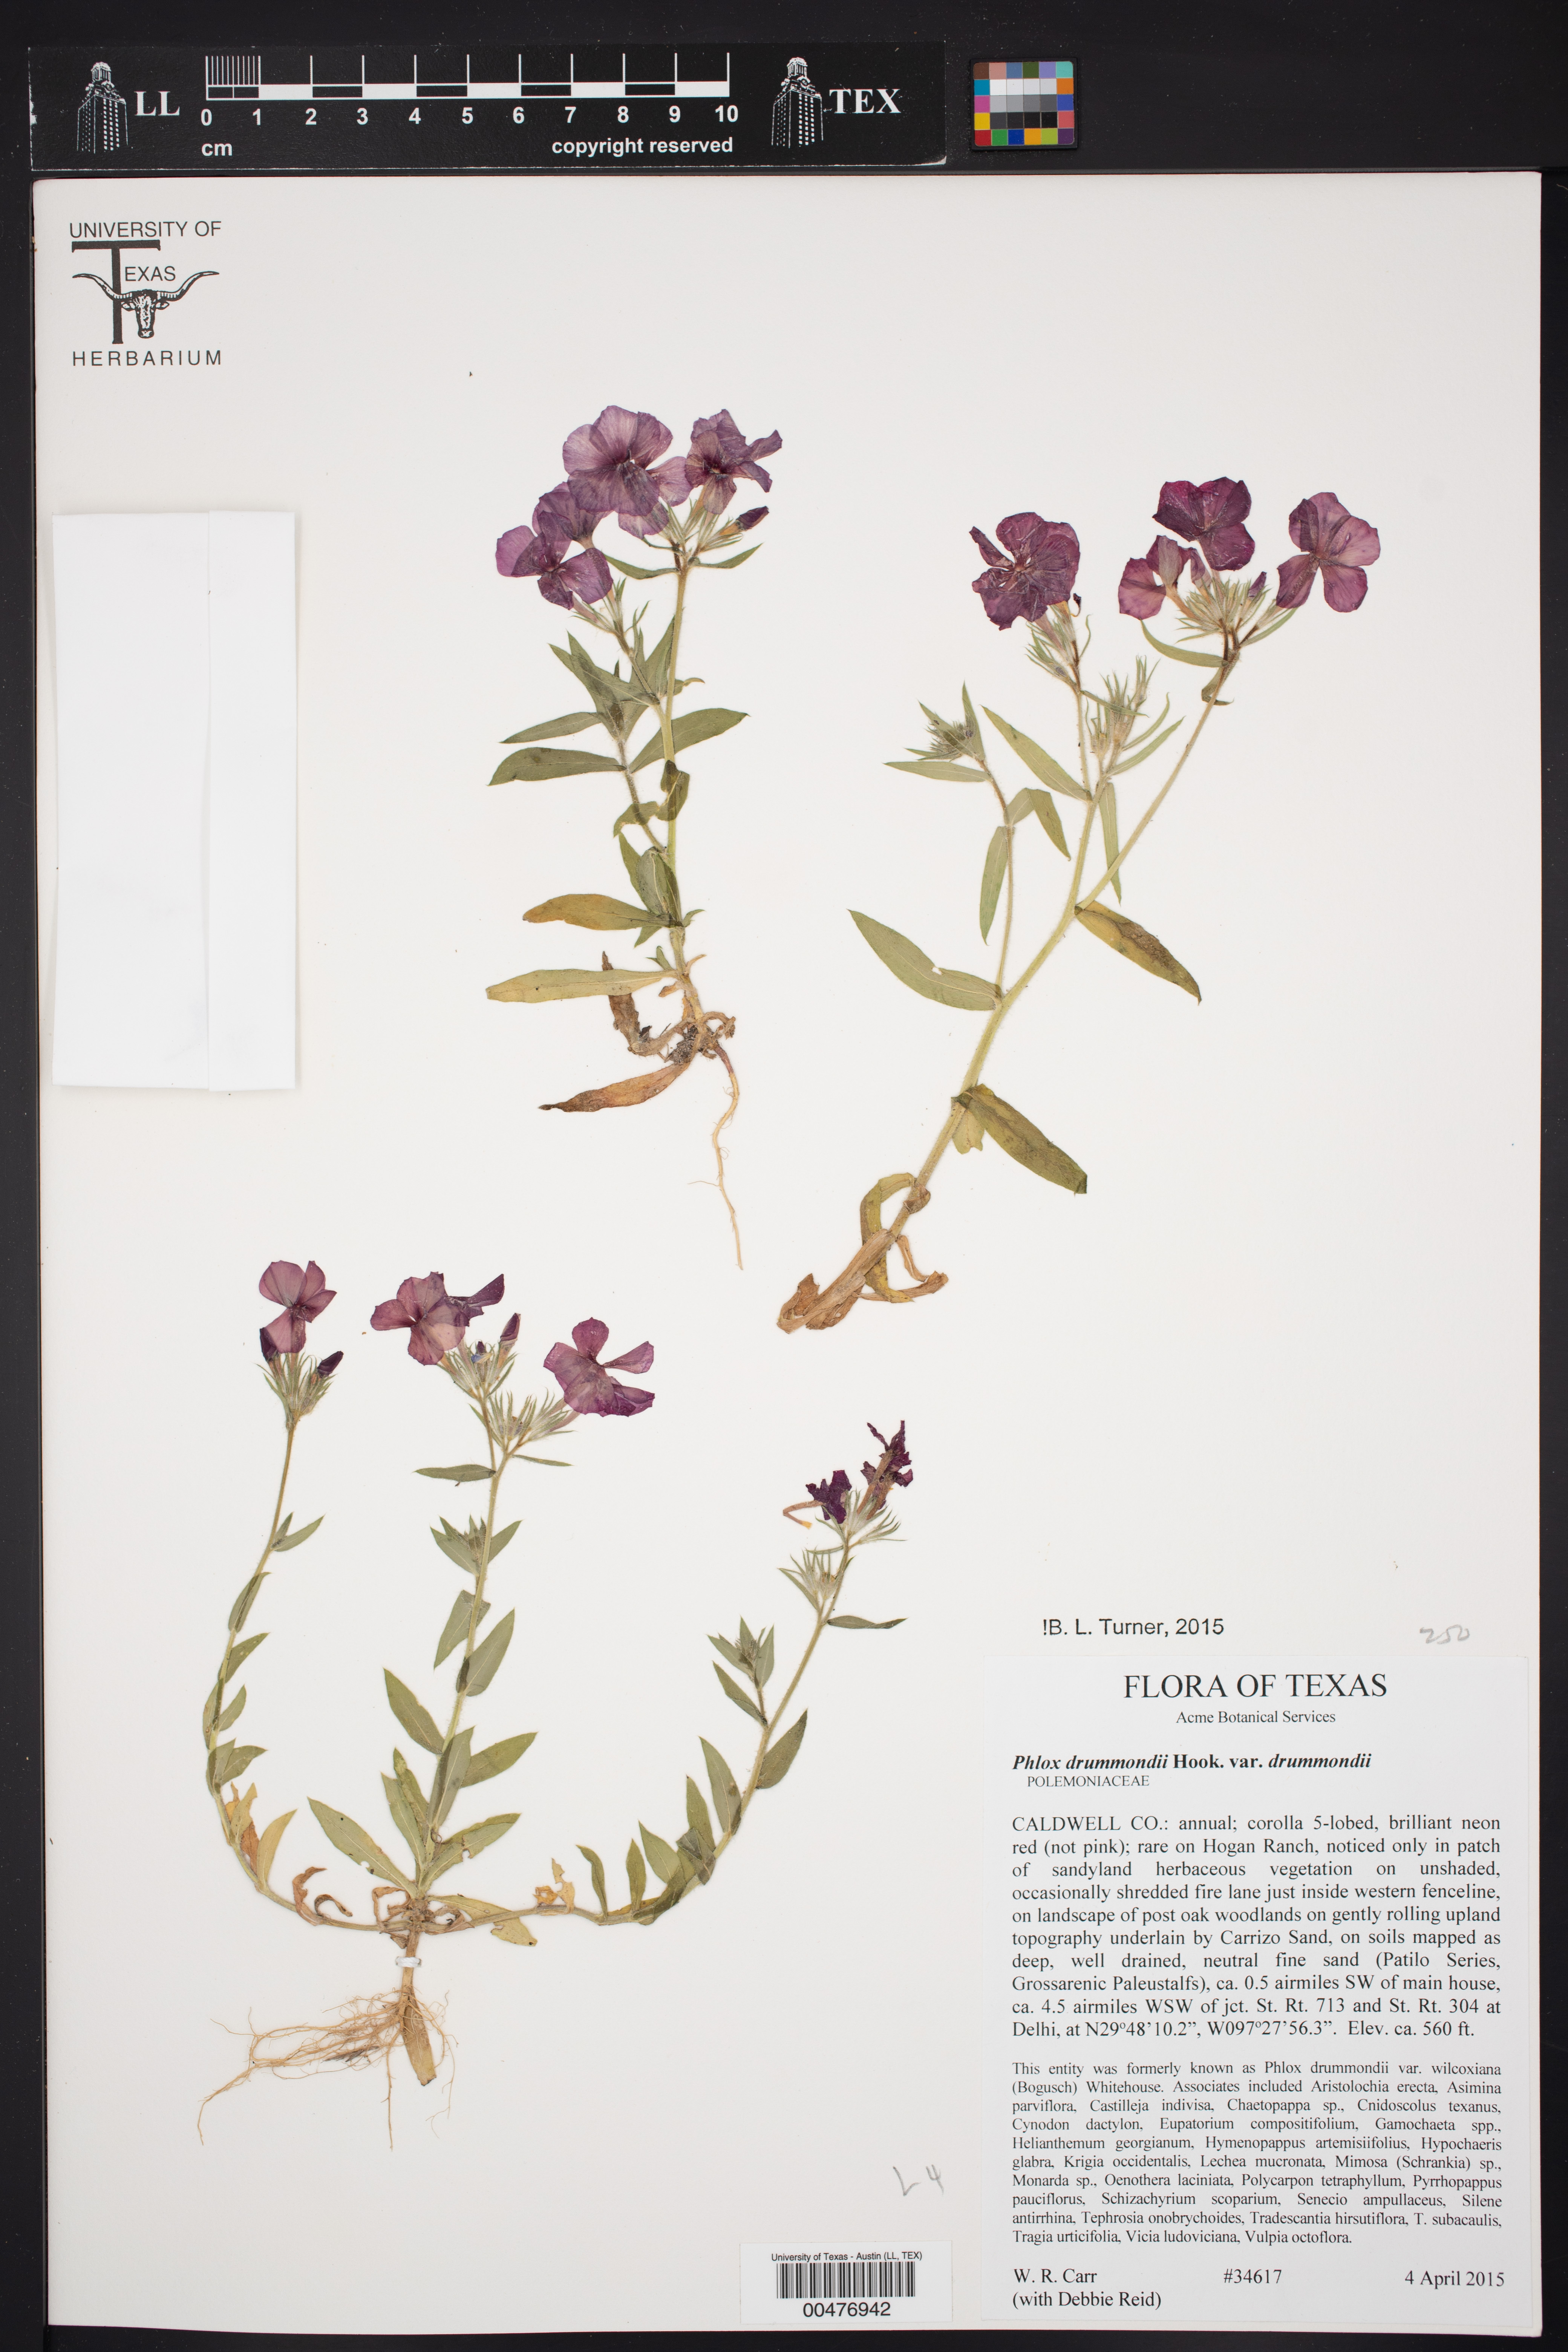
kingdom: Plantae
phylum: Tracheophyta
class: Magnoliopsida
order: Ericales
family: Polemoniaceae
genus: Phlox
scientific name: Phlox drummondii
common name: Drummond's phlox
